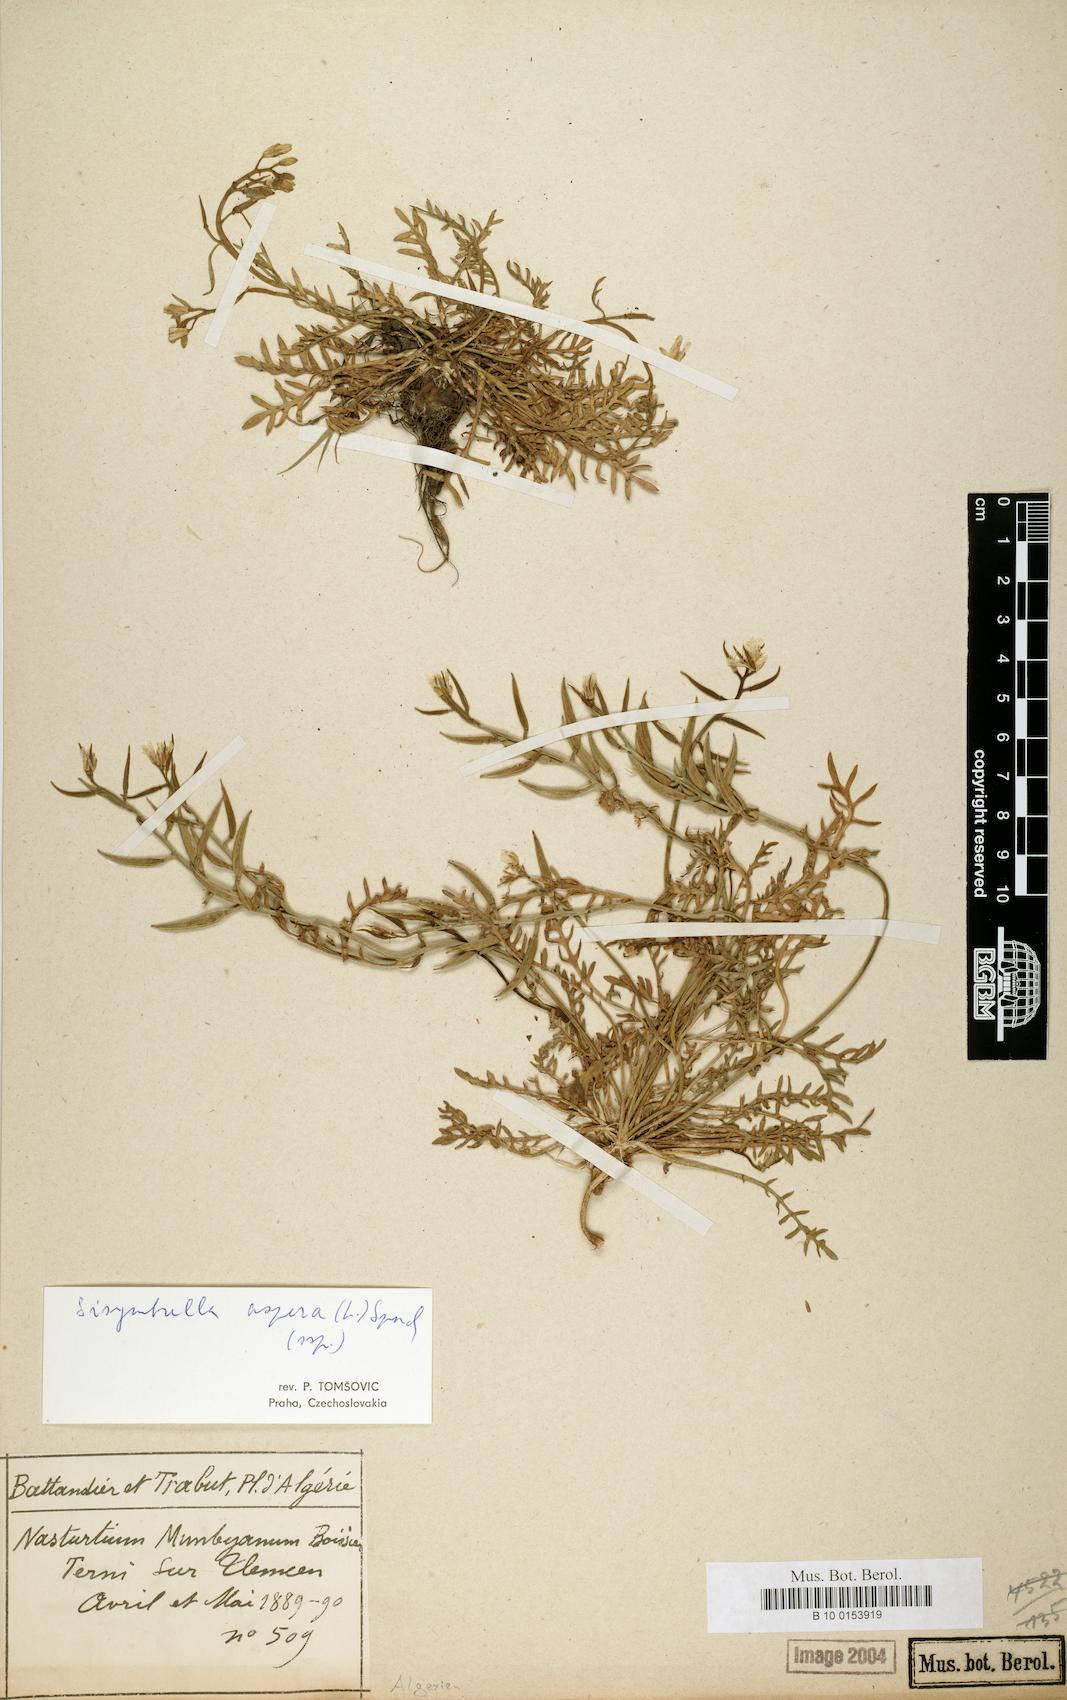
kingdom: Plantae
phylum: Tracheophyta
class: Magnoliopsida
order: Brassicales
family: Brassicaceae
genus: Sisymbrella
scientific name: Sisymbrella aspera
